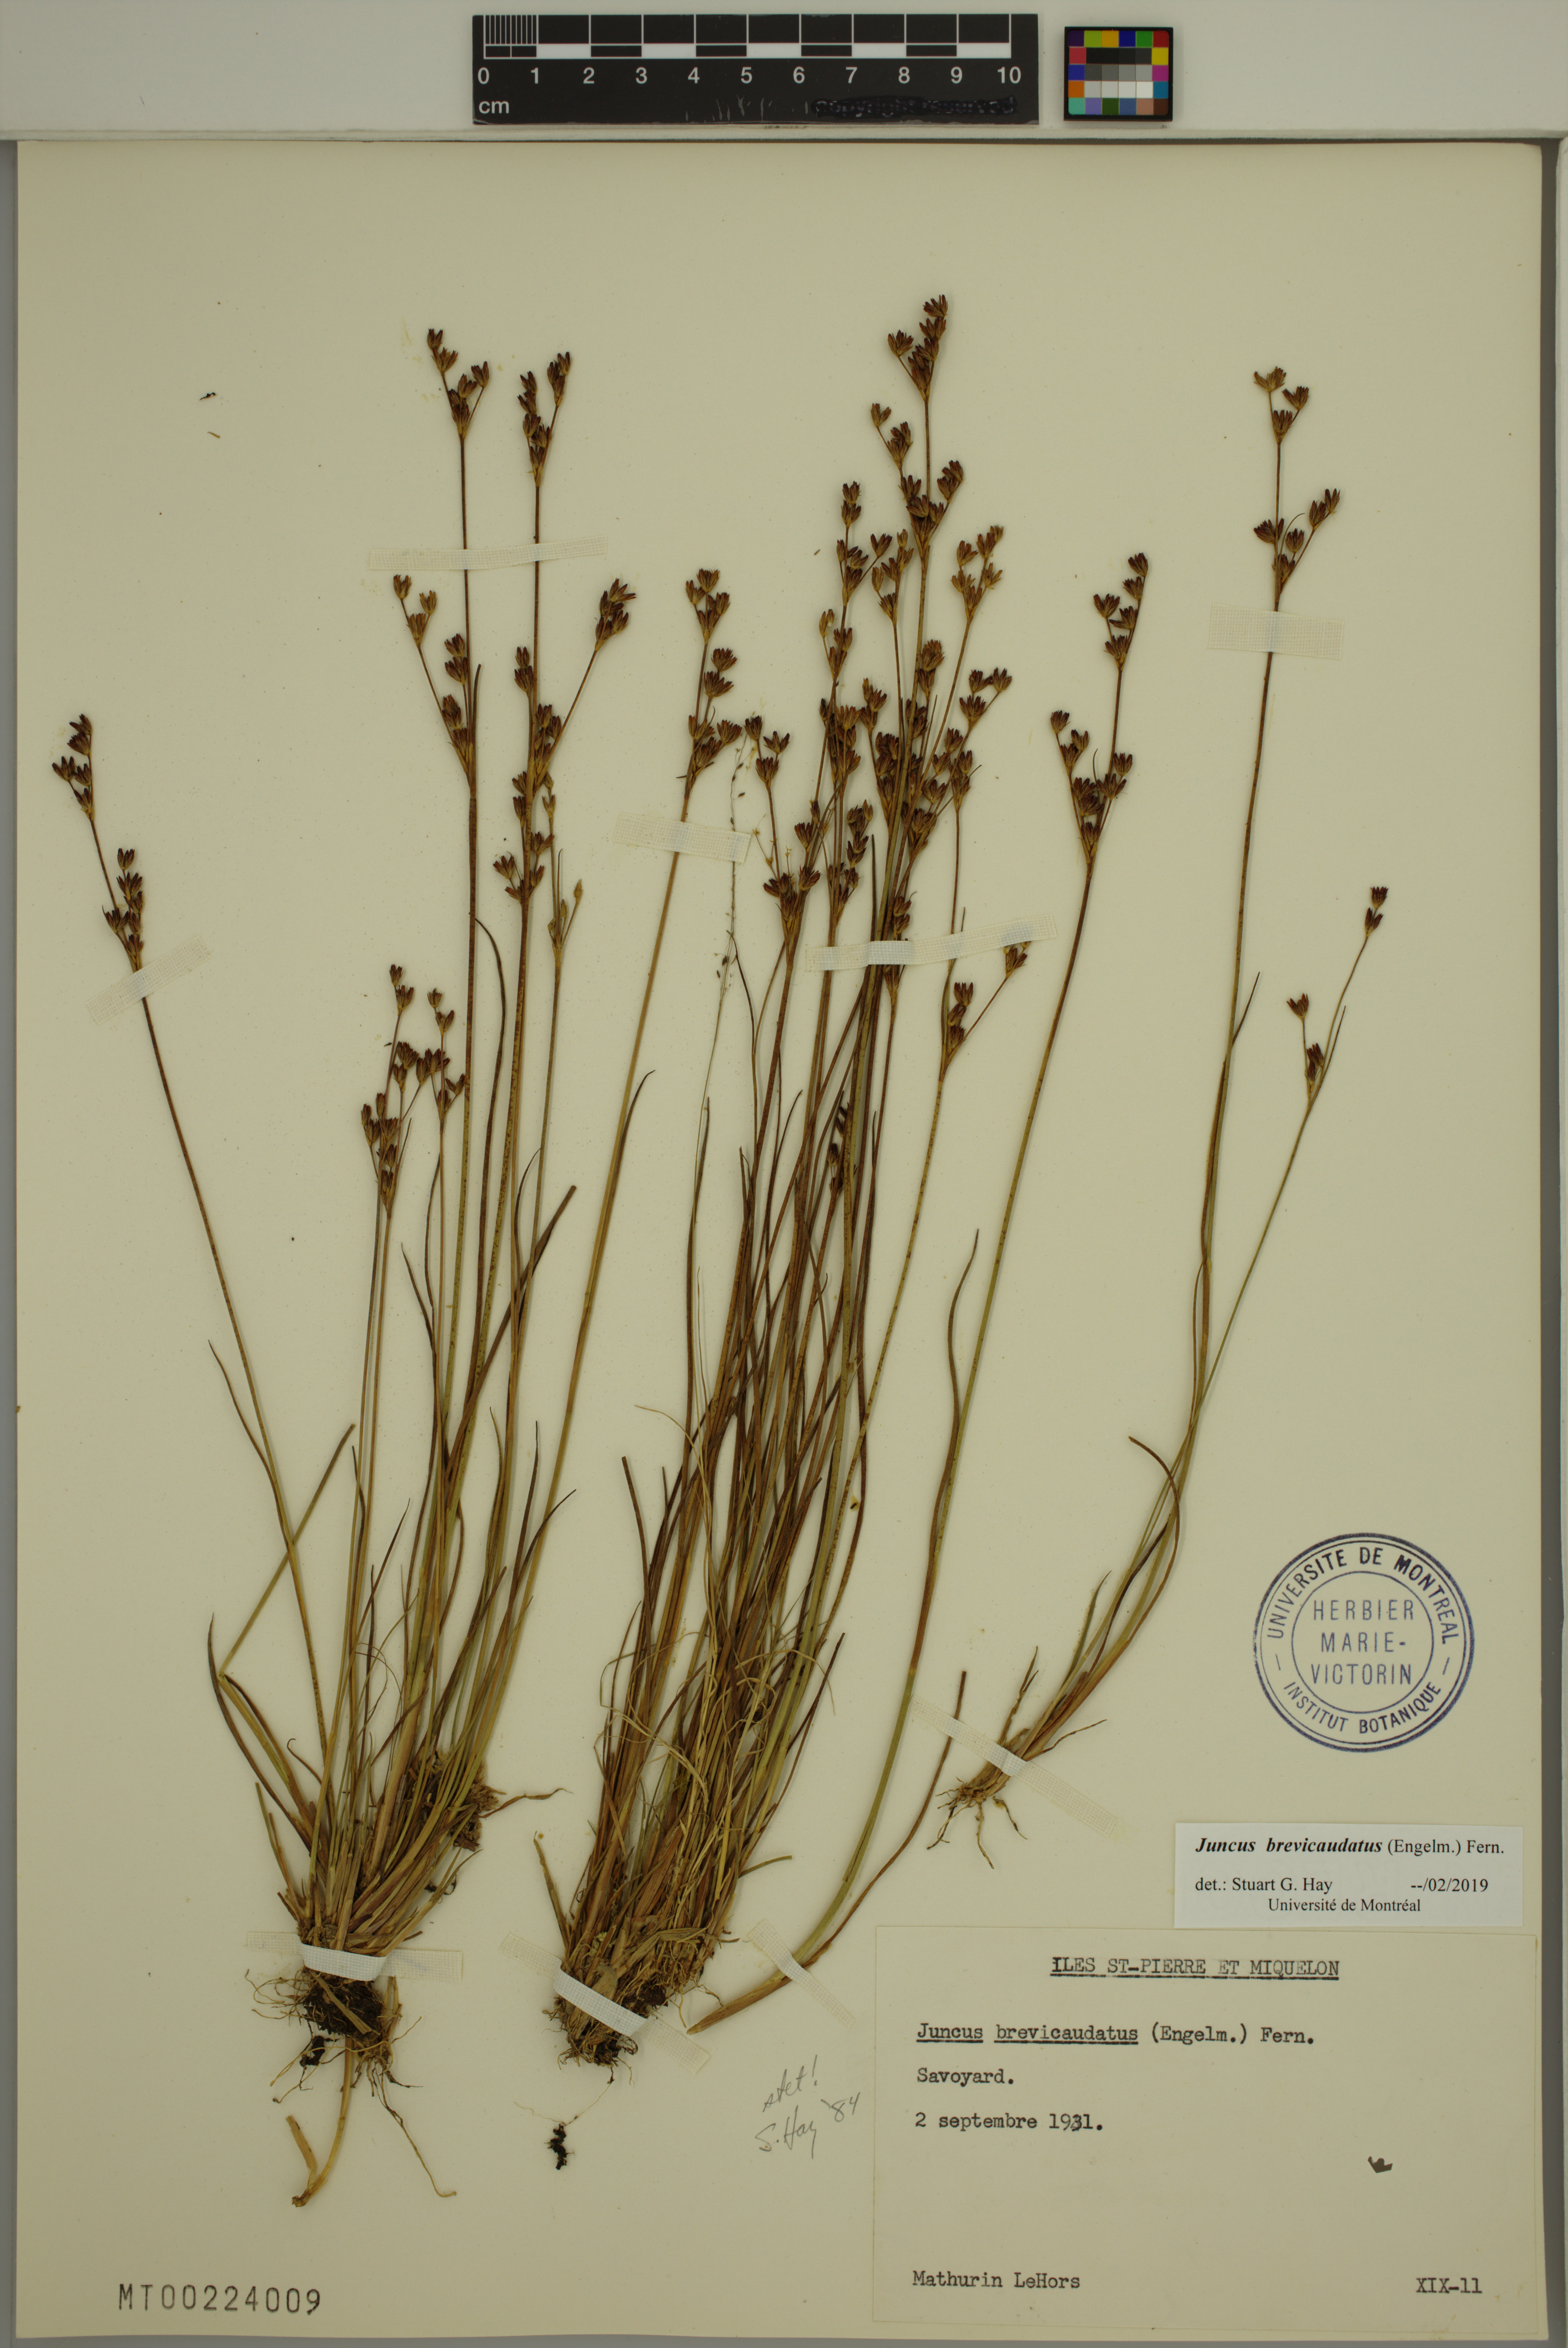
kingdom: Plantae
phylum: Tracheophyta
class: Liliopsida
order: Poales
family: Juncaceae
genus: Juncus
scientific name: Juncus brevicaudatus
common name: Narrow-panicle rush
